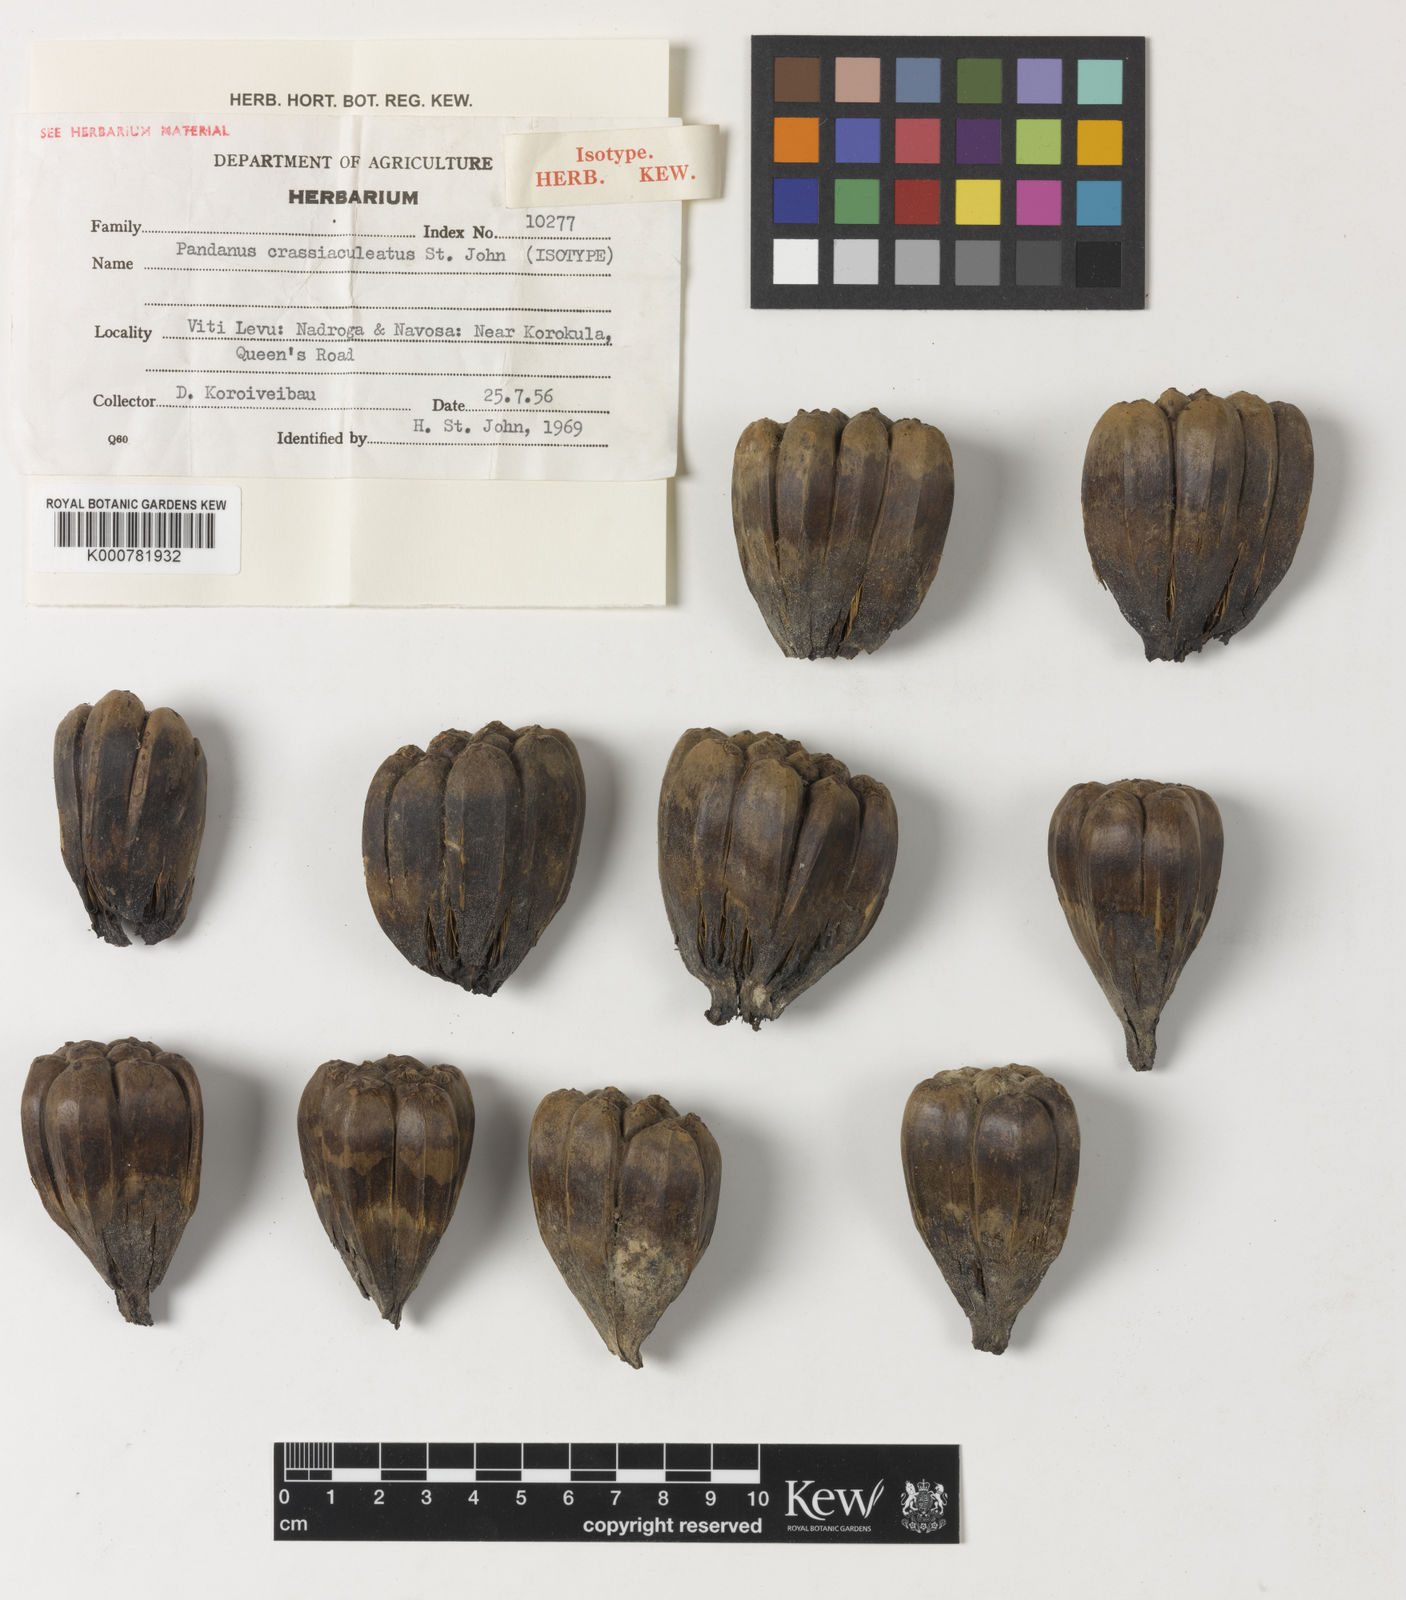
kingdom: Plantae
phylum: Tracheophyta
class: Liliopsida
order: Pandanales
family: Pandanaceae
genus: Pandanus
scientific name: Pandanus tectorius
